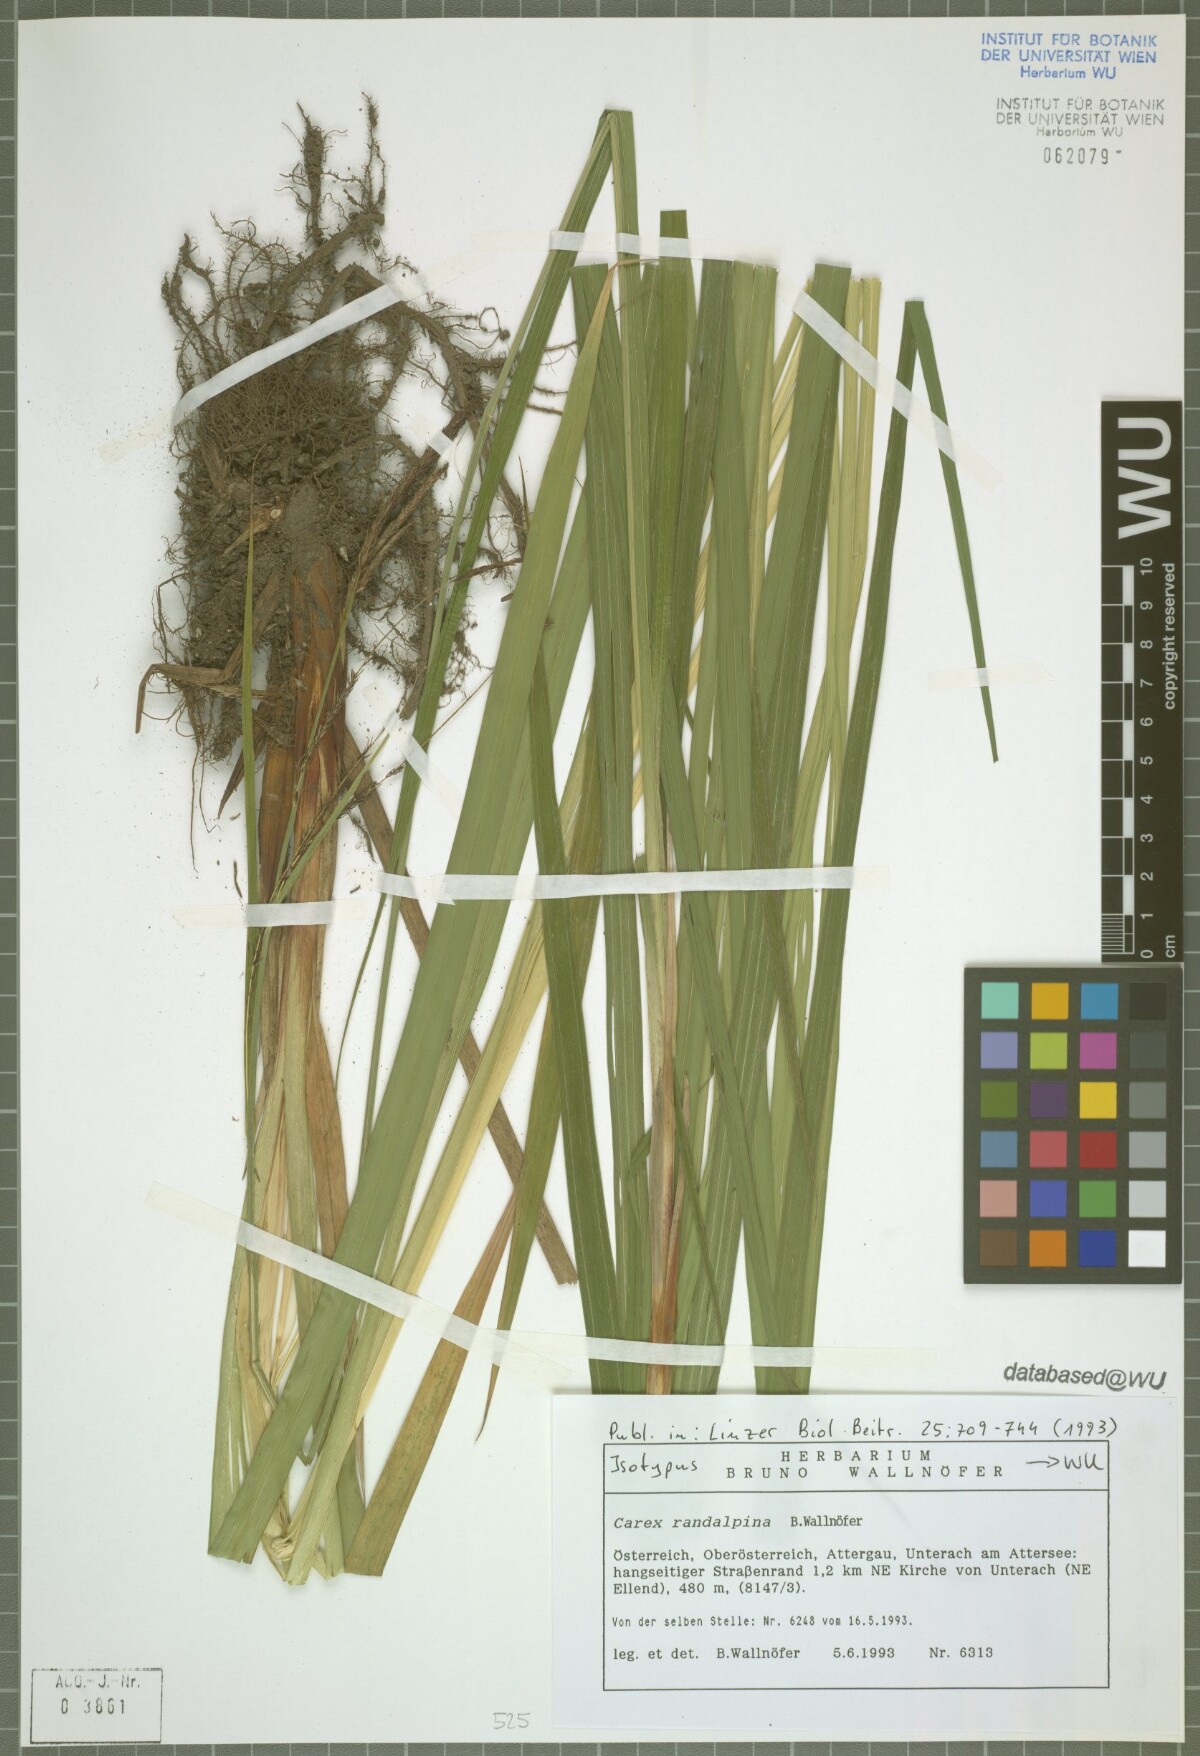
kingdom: Plantae
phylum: Tracheophyta
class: Liliopsida
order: Poales
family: Cyperaceae
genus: Carex
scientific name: Carex randalpina
